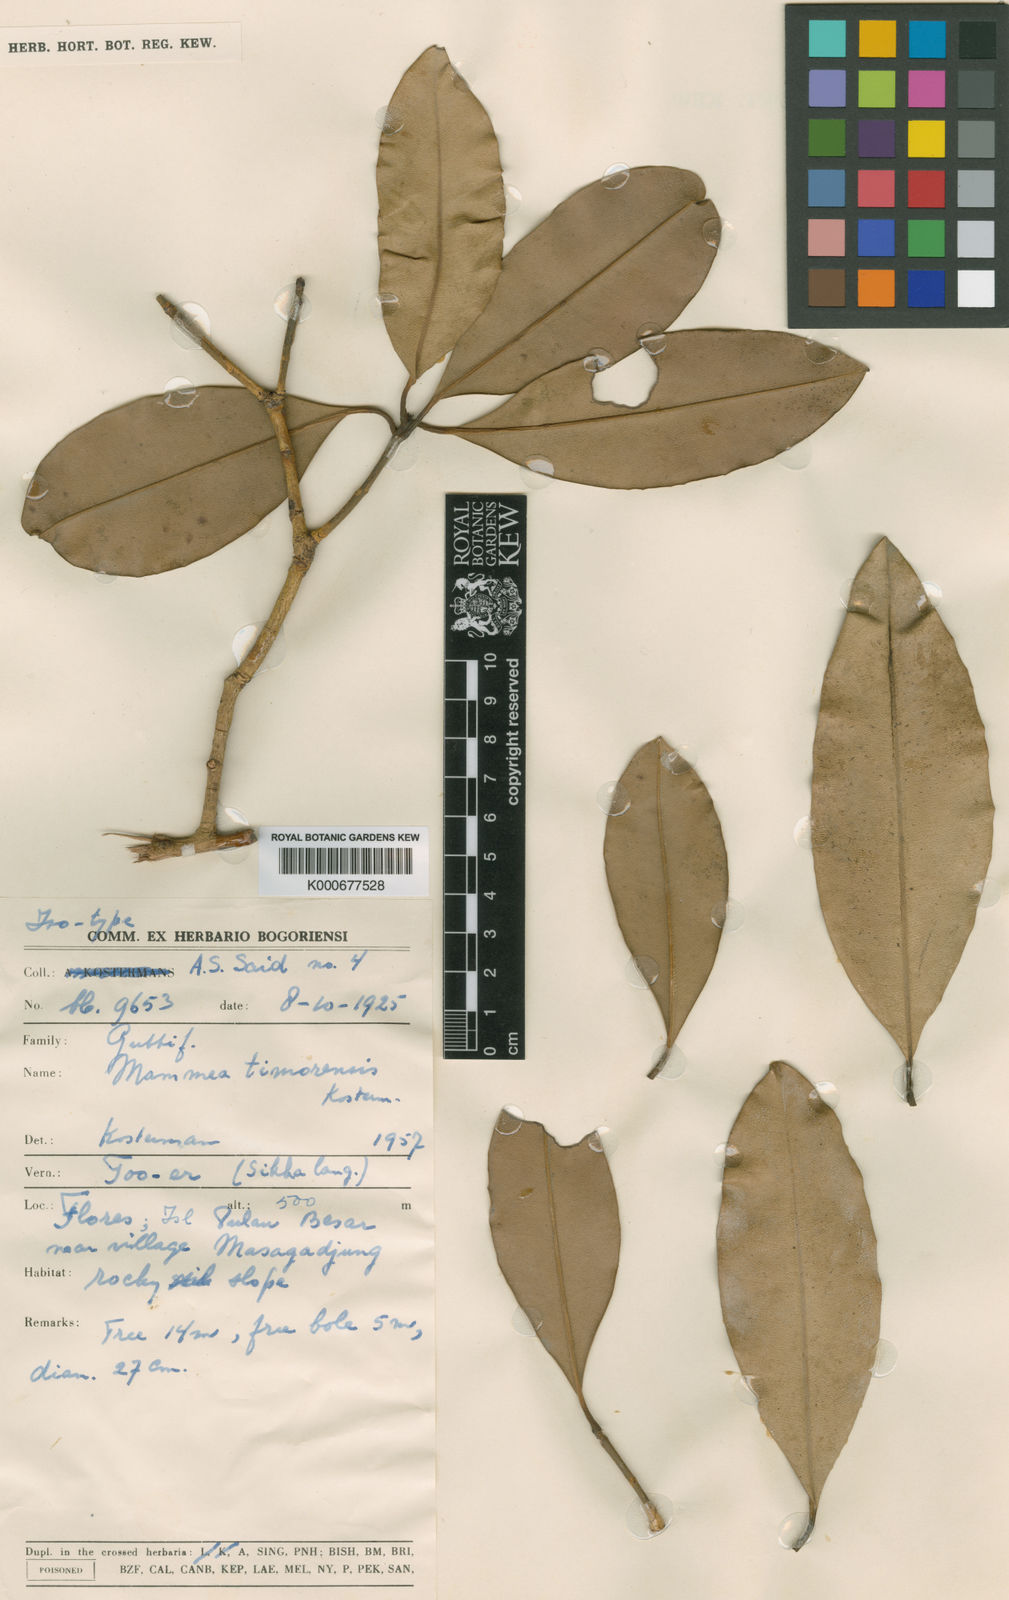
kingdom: Plantae
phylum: Tracheophyta
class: Magnoliopsida
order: Malpighiales
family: Calophyllaceae
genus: Mammea
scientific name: Mammea timorensis
